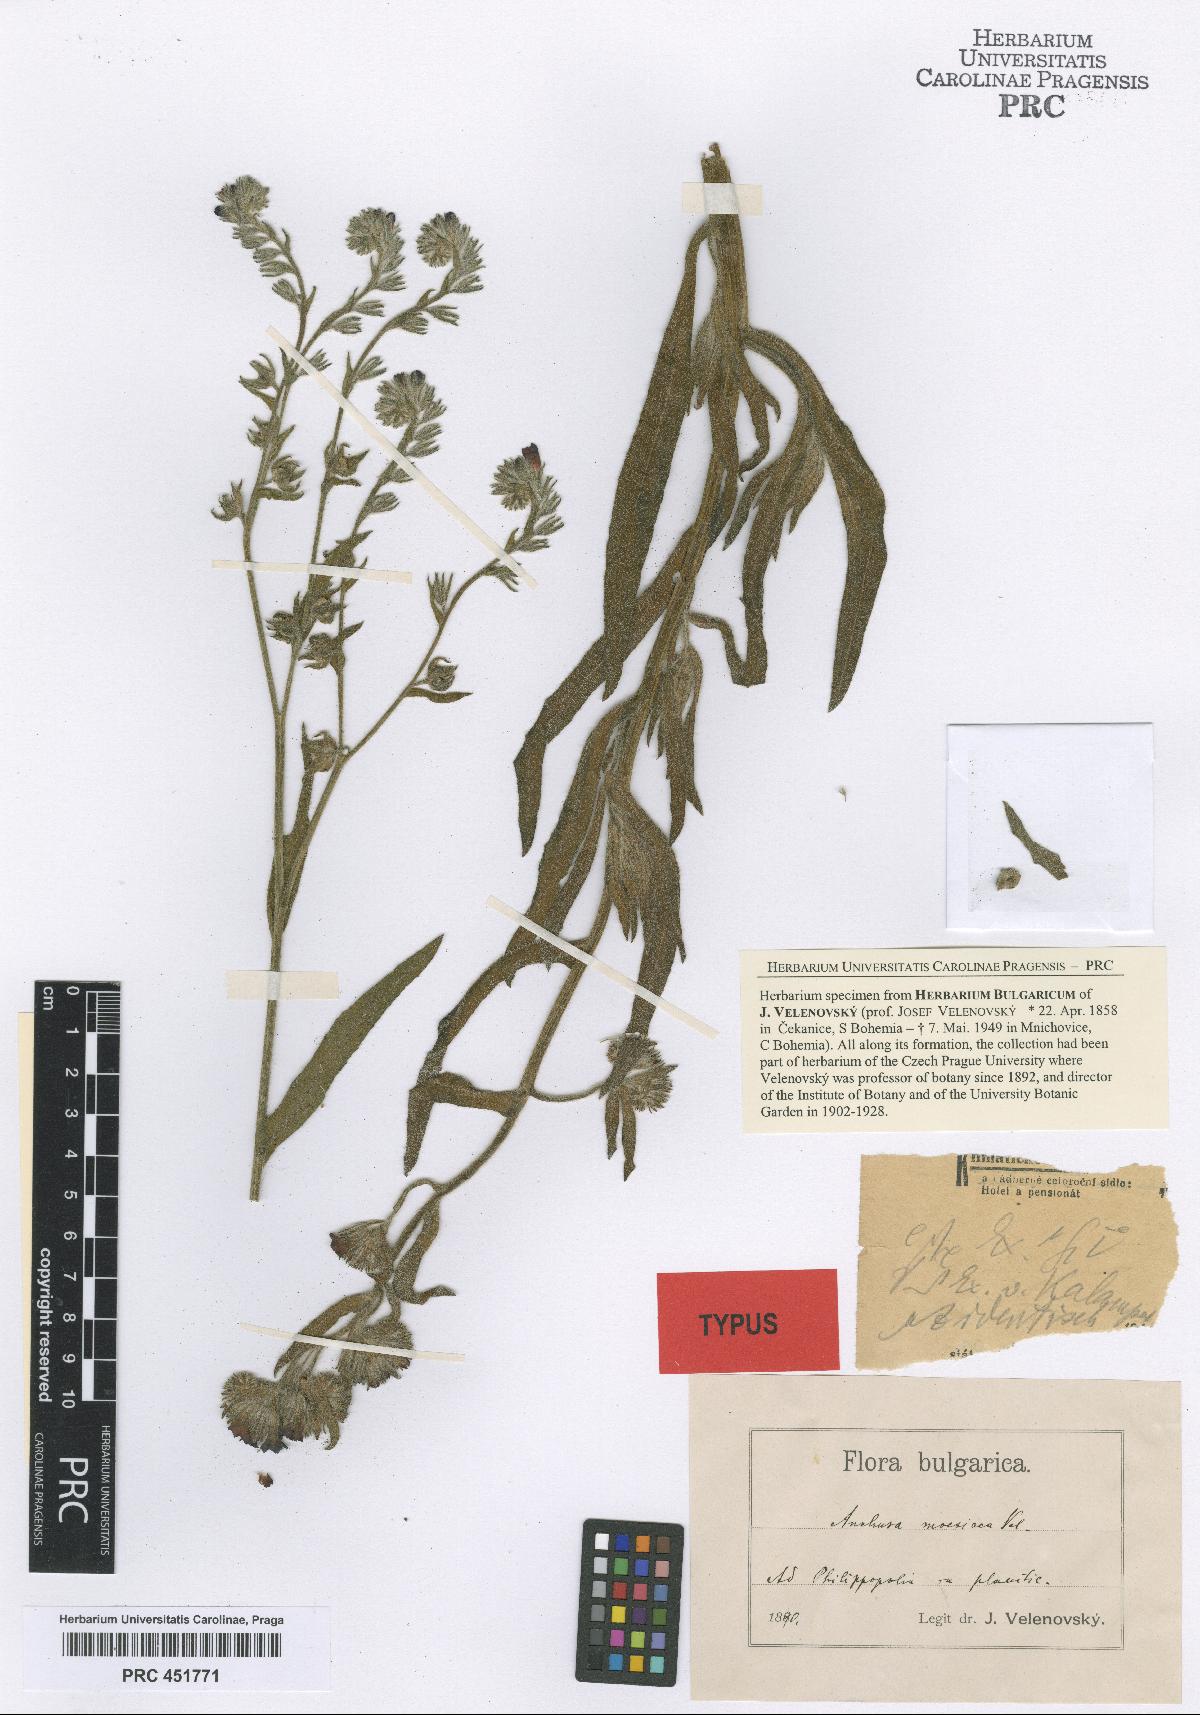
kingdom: Plantae
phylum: Tracheophyta
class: Magnoliopsida
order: Boraginales
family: Boraginaceae
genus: Anchusa
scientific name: Anchusa officinalis
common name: Alkanet
